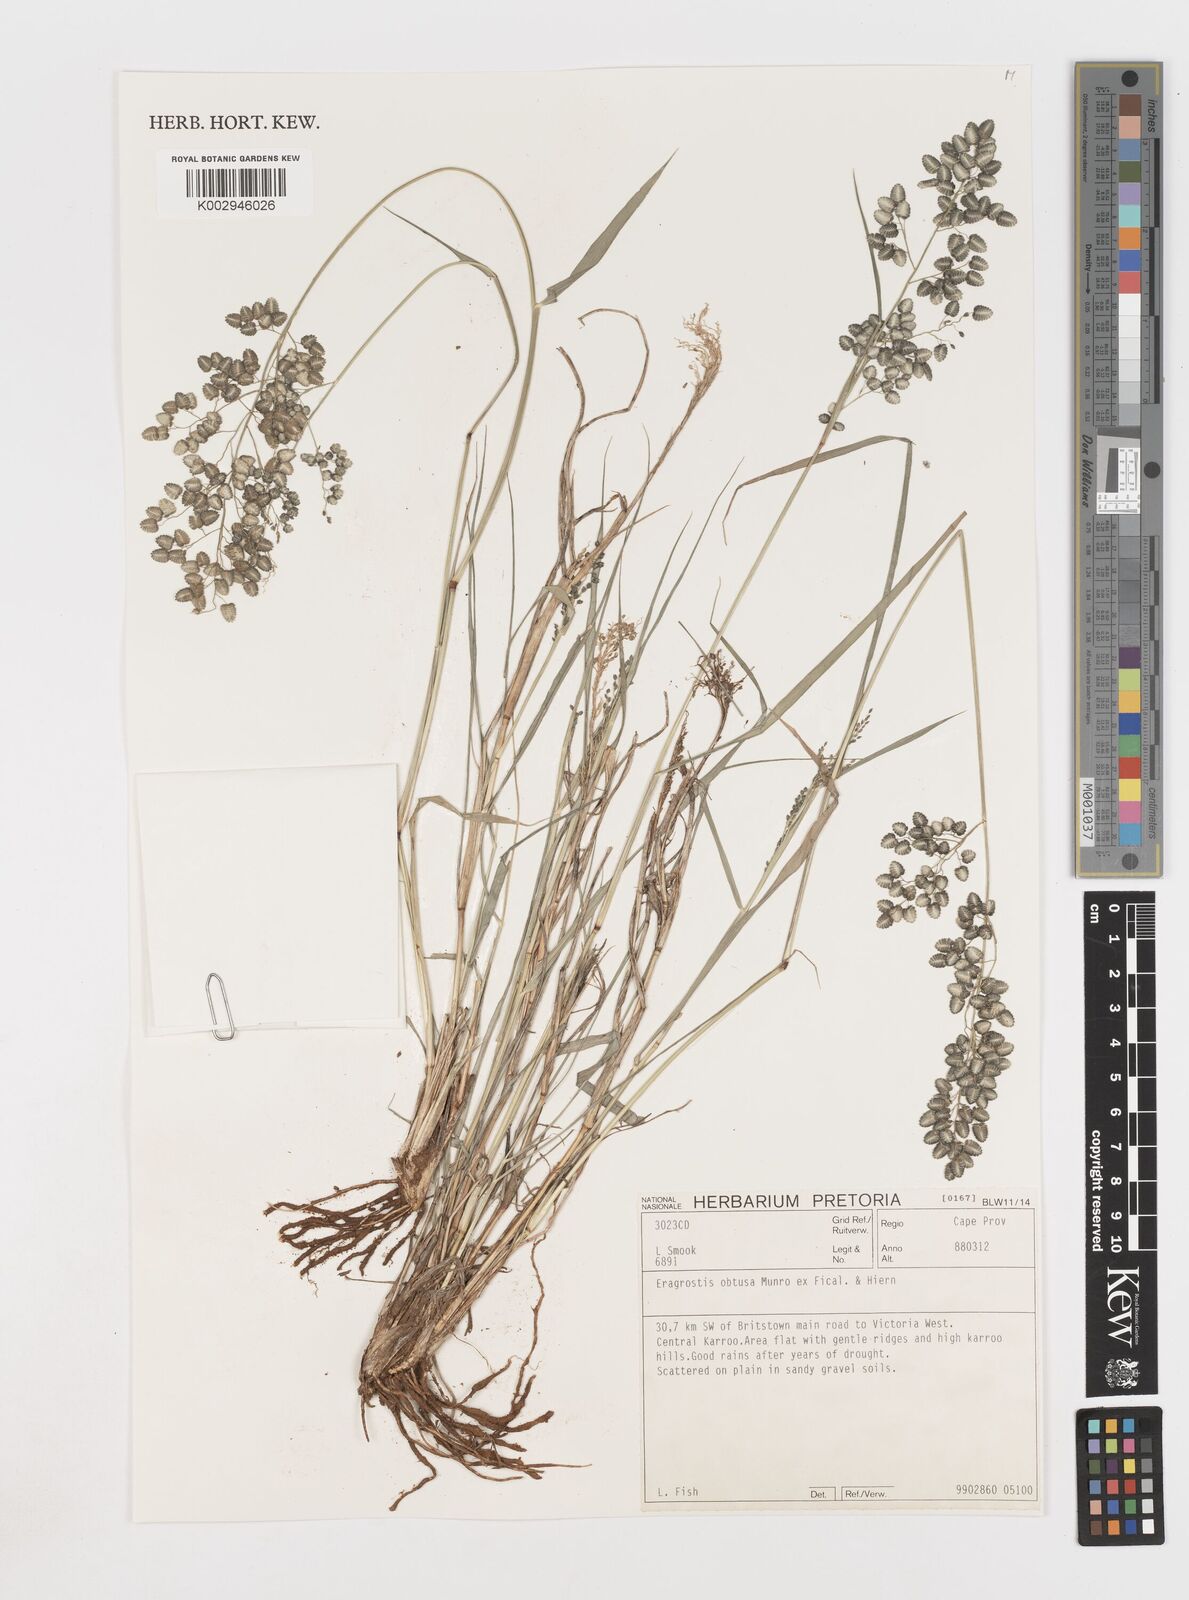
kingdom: Plantae
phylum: Tracheophyta
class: Liliopsida
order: Poales
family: Poaceae
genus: Eragrostis
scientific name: Eragrostis obtusa
